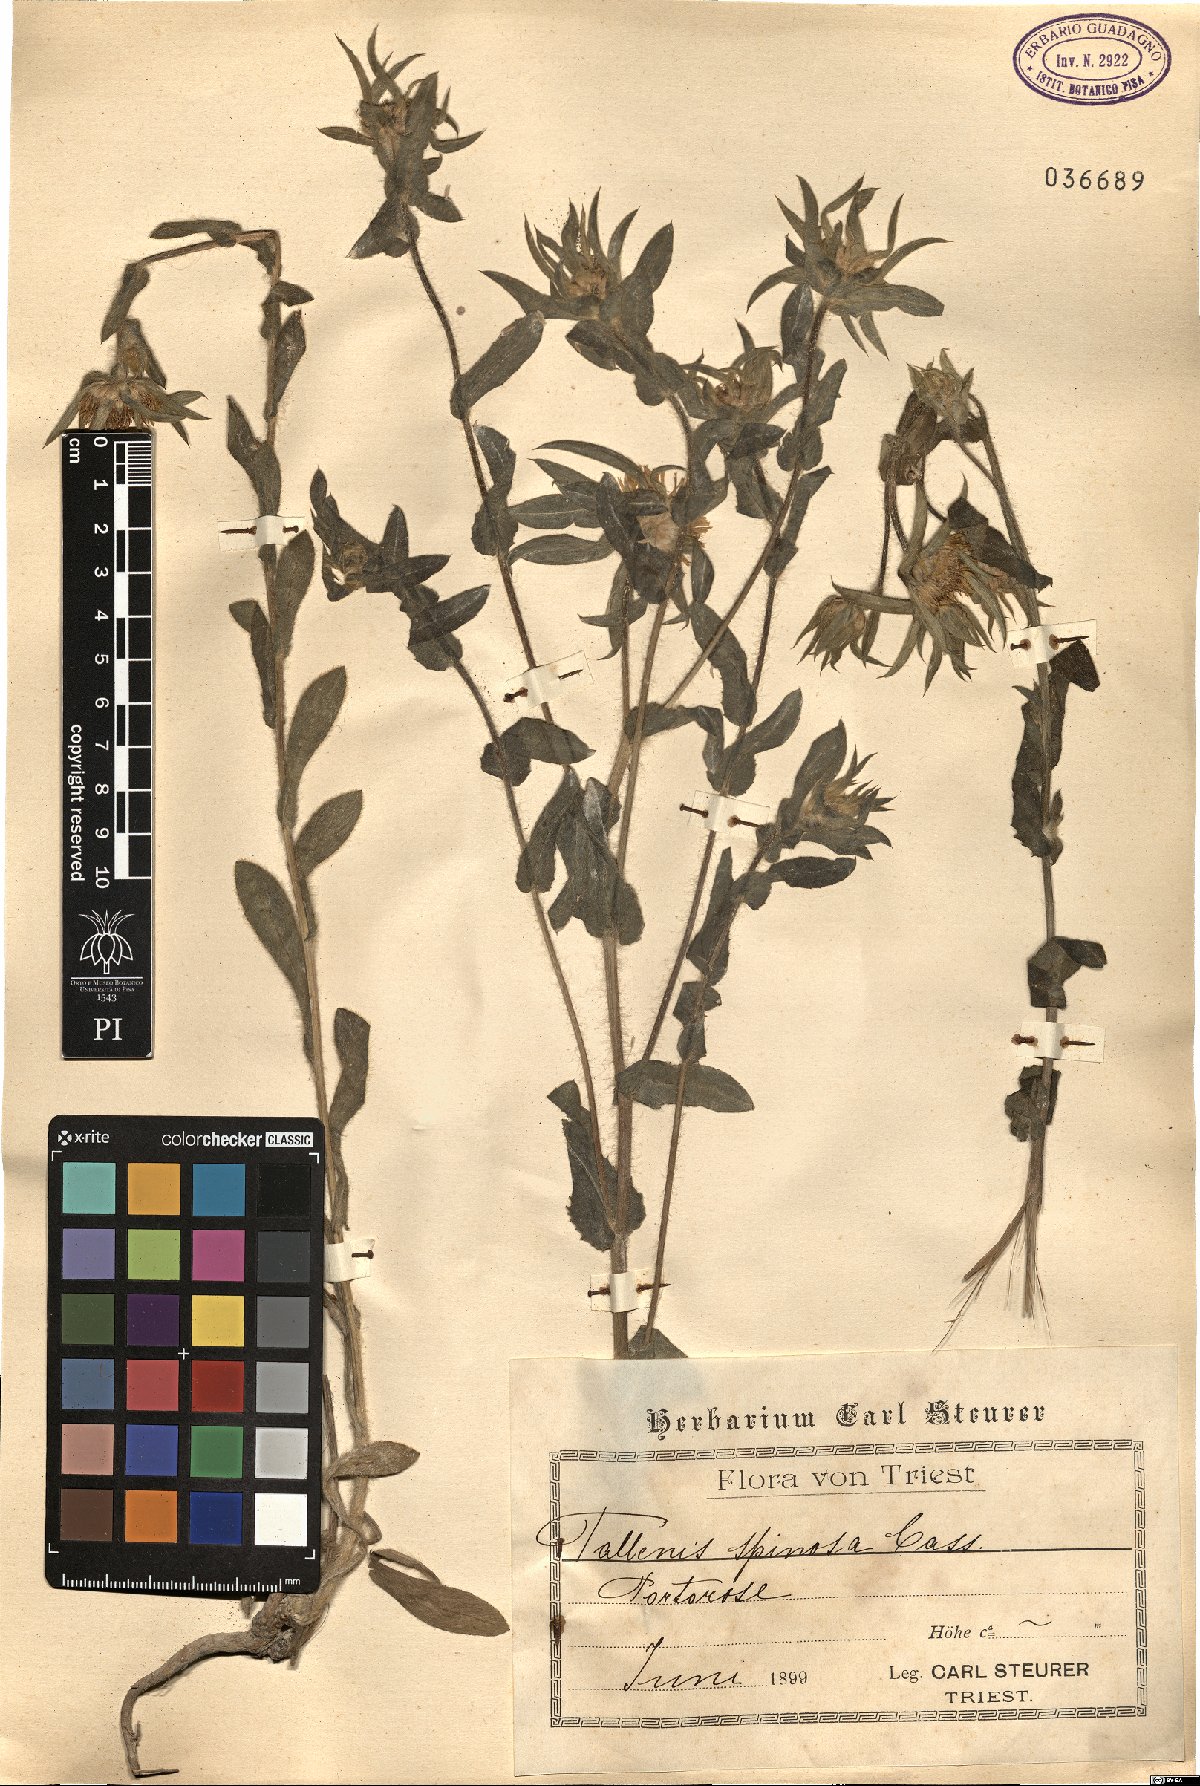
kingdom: Plantae
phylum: Tracheophyta
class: Magnoliopsida
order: Asterales
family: Asteraceae
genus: Pallenis
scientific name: Pallenis spinosa
